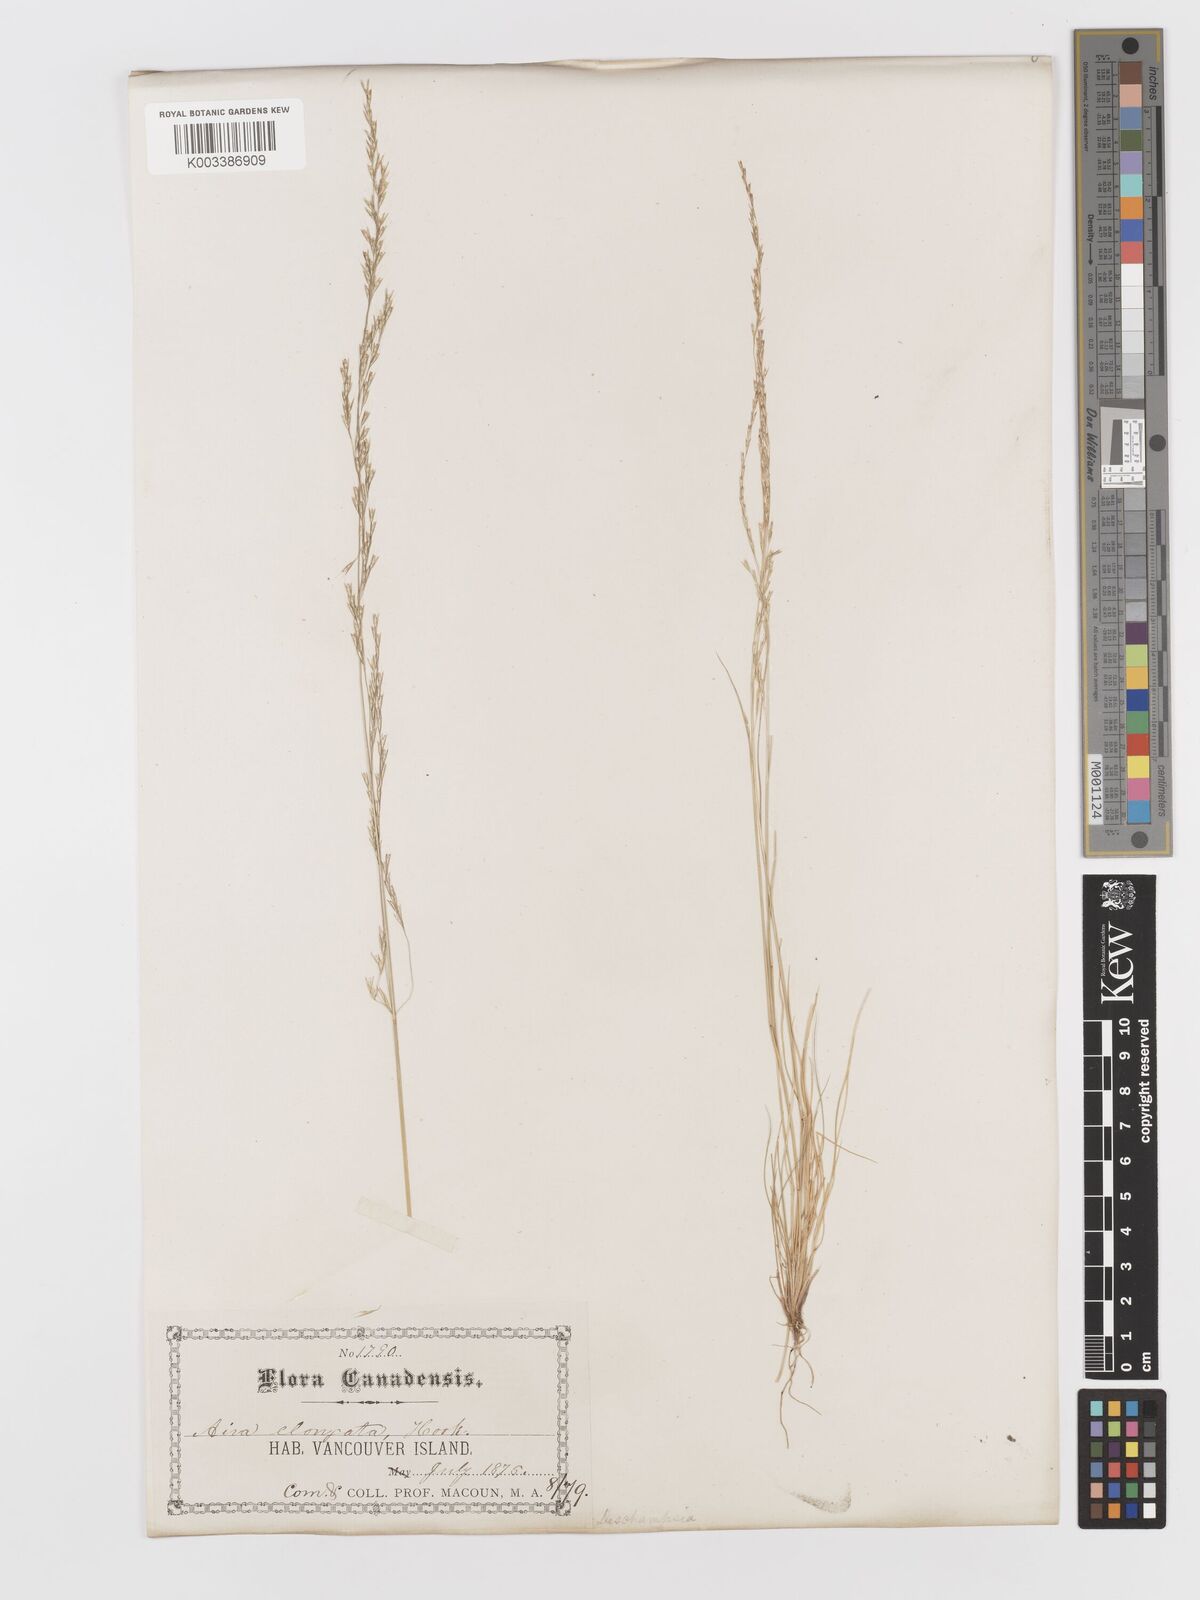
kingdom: Plantae
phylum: Tracheophyta
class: Liliopsida
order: Poales
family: Poaceae
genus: Deschampsia
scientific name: Deschampsia elongata
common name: Slender hairgrass
